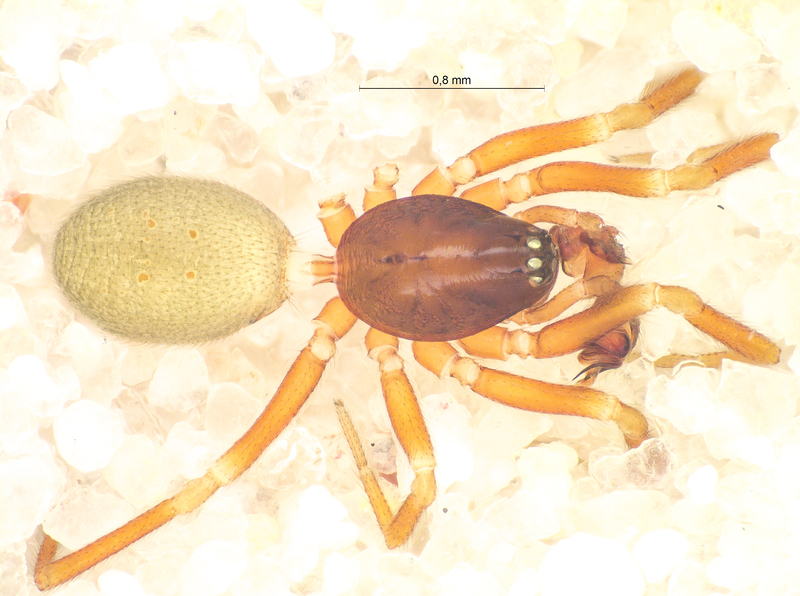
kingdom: Animalia
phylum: Arthropoda
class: Arachnida
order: Araneae
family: Linyphiidae
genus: Walckenaeria
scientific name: Walckenaeria dysderoides
